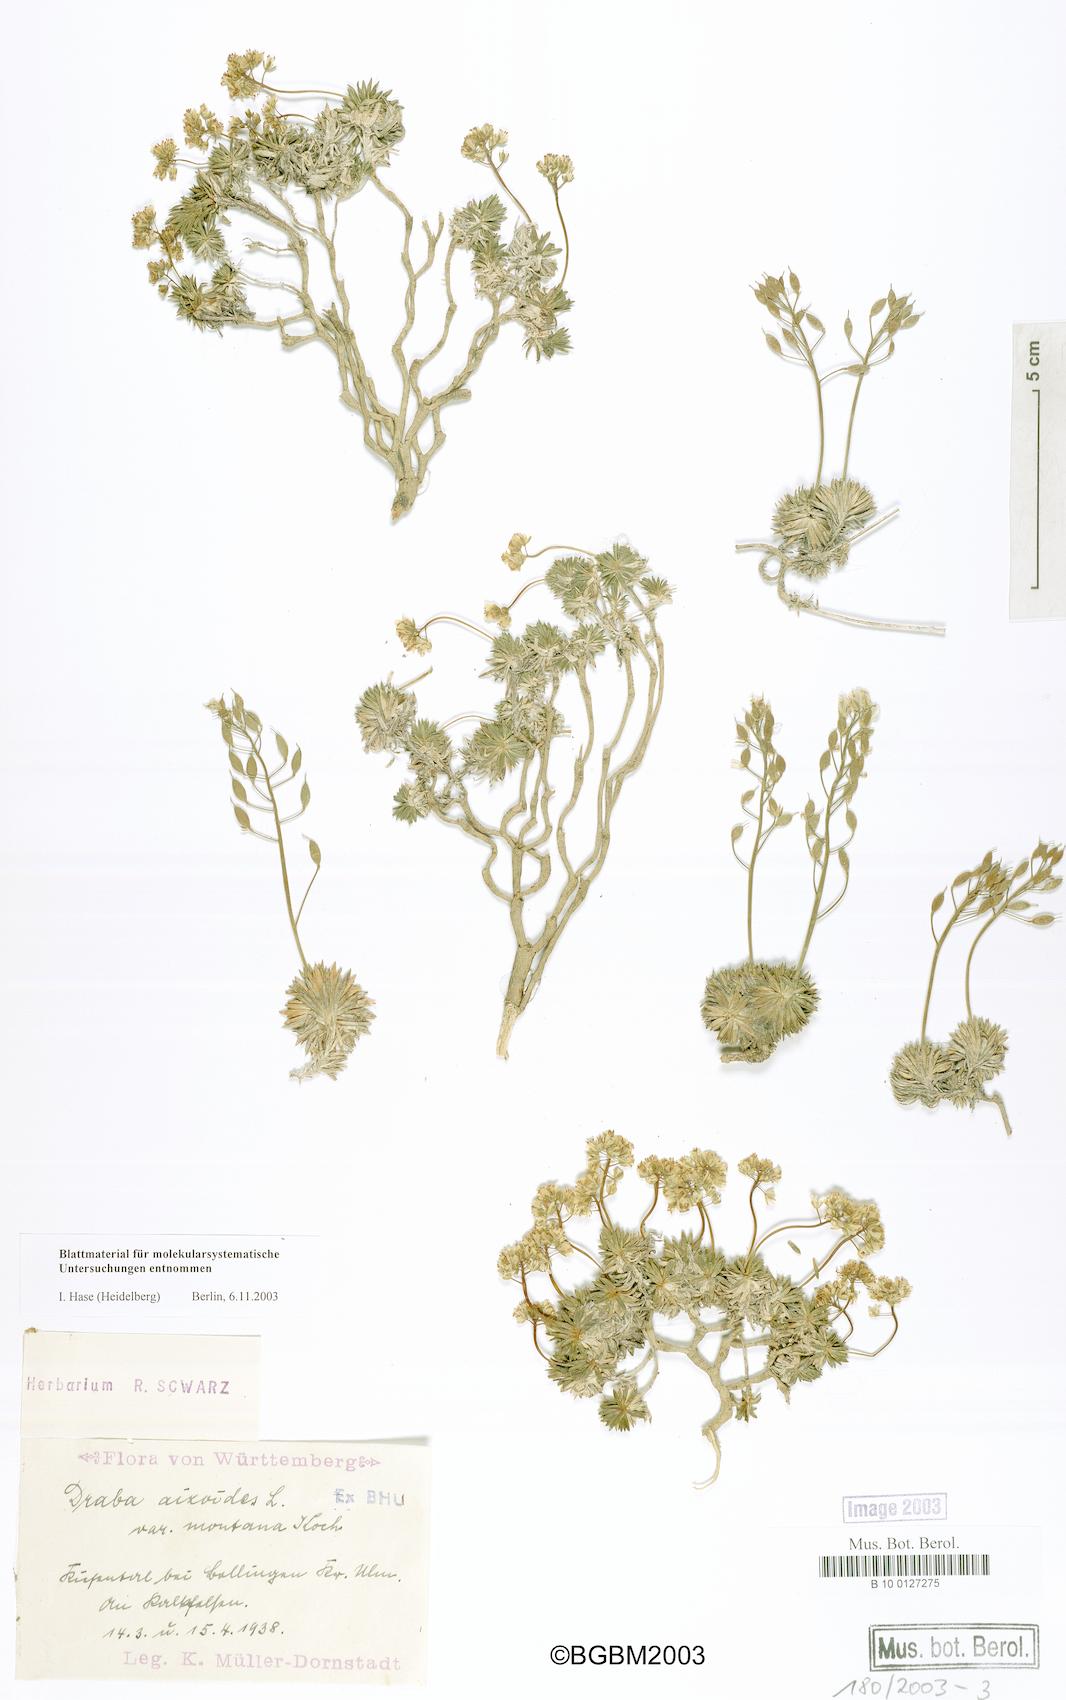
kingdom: Plantae
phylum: Tracheophyta
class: Magnoliopsida
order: Brassicales
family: Brassicaceae
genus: Draba
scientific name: Draba aizoides
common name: Yellow whitlowgrass
